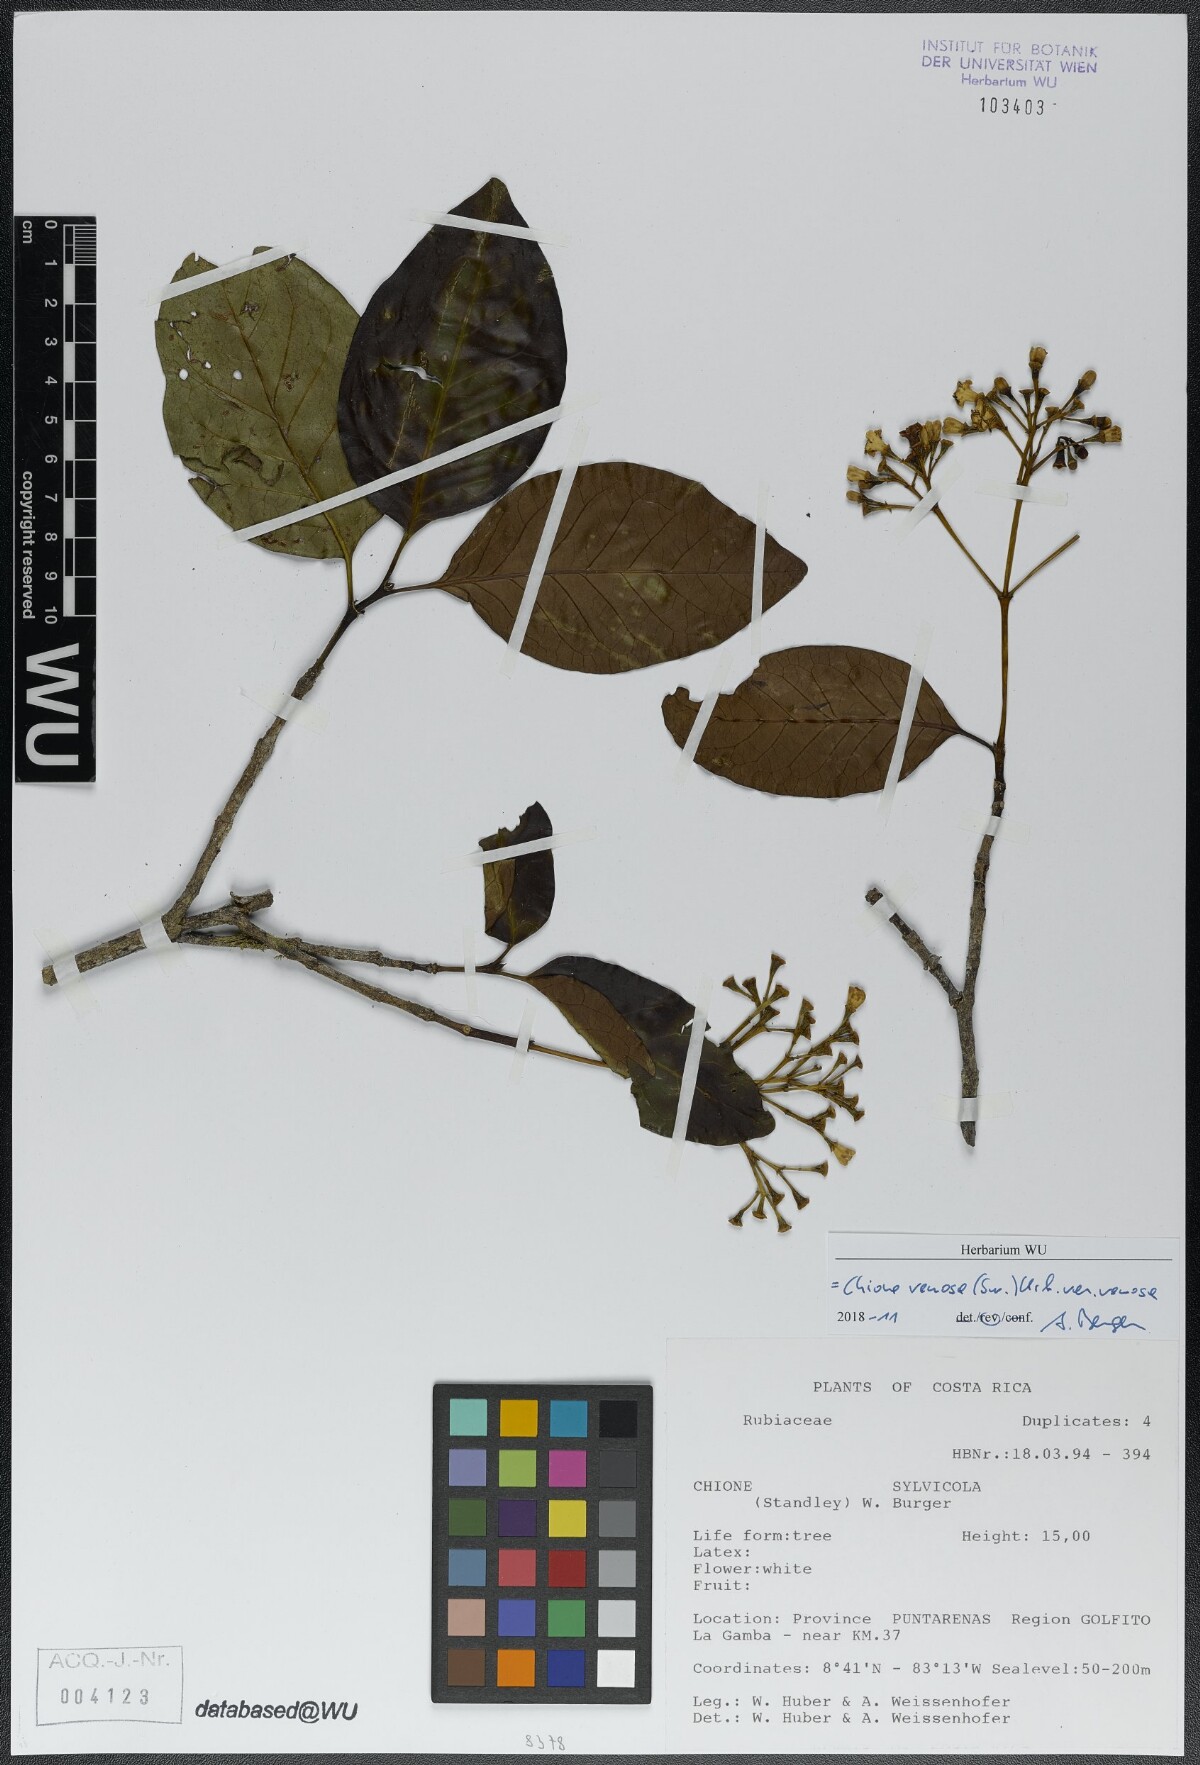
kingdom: Plantae
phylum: Tracheophyta
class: Magnoliopsida
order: Gentianales
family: Rubiaceae
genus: Chione
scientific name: Chione venosa
